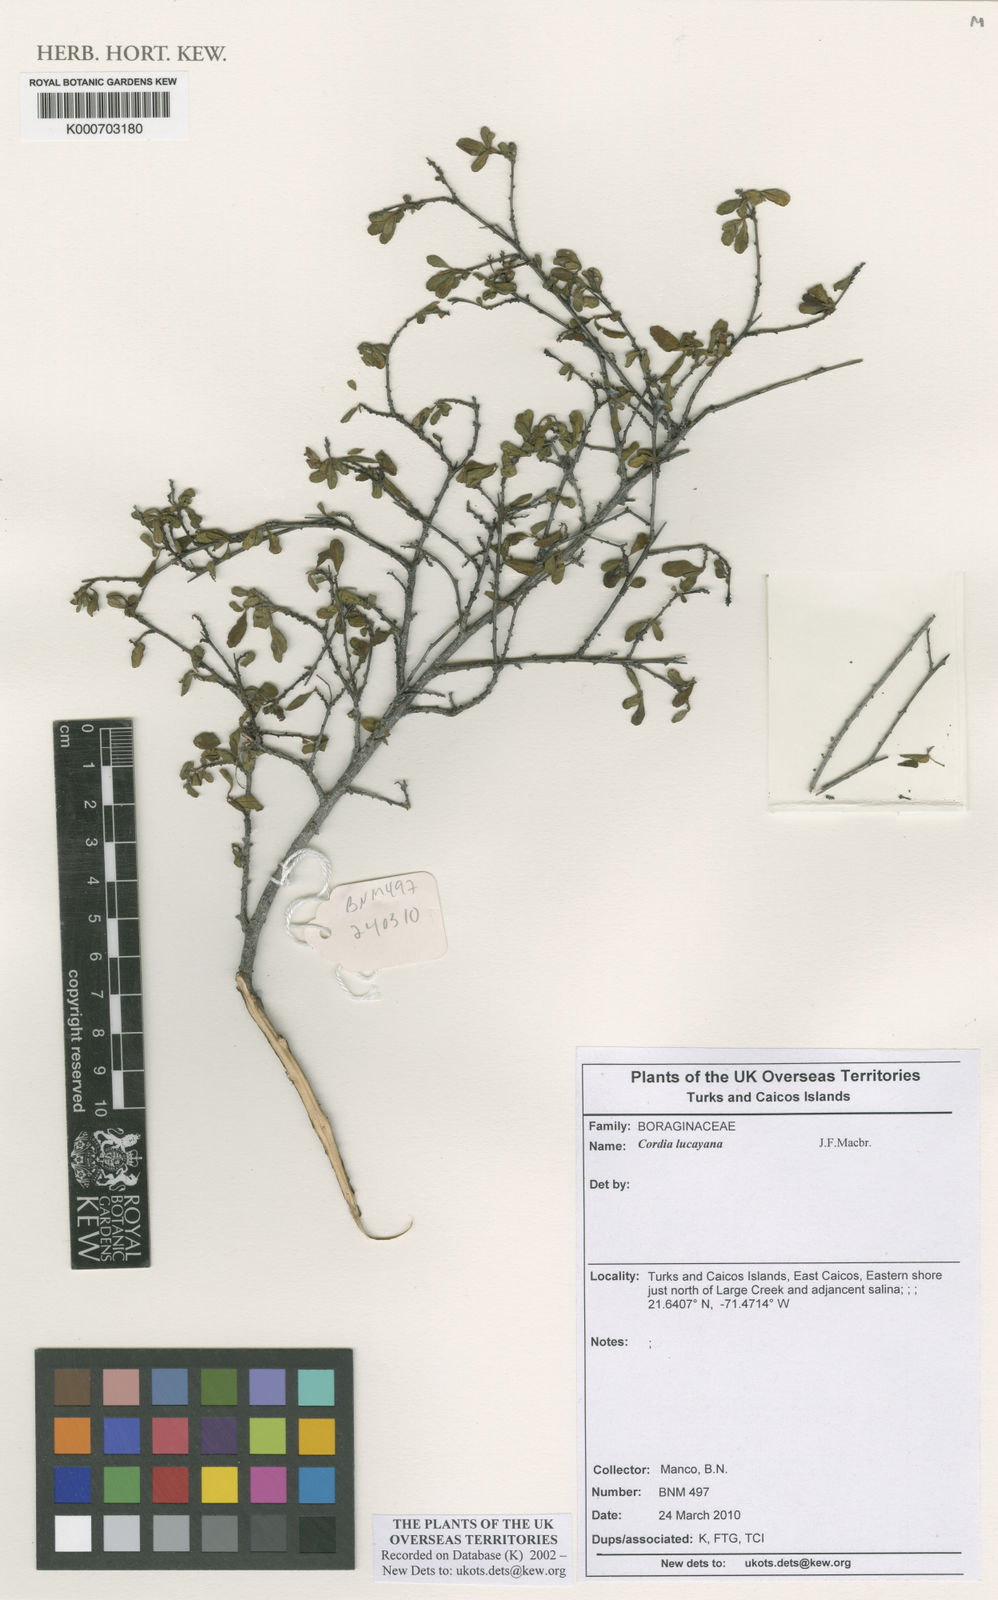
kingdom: Plantae
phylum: Tracheophyta
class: Magnoliopsida
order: Boraginales
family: Cordiaceae
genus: Varronia
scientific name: Varronia lucayana
